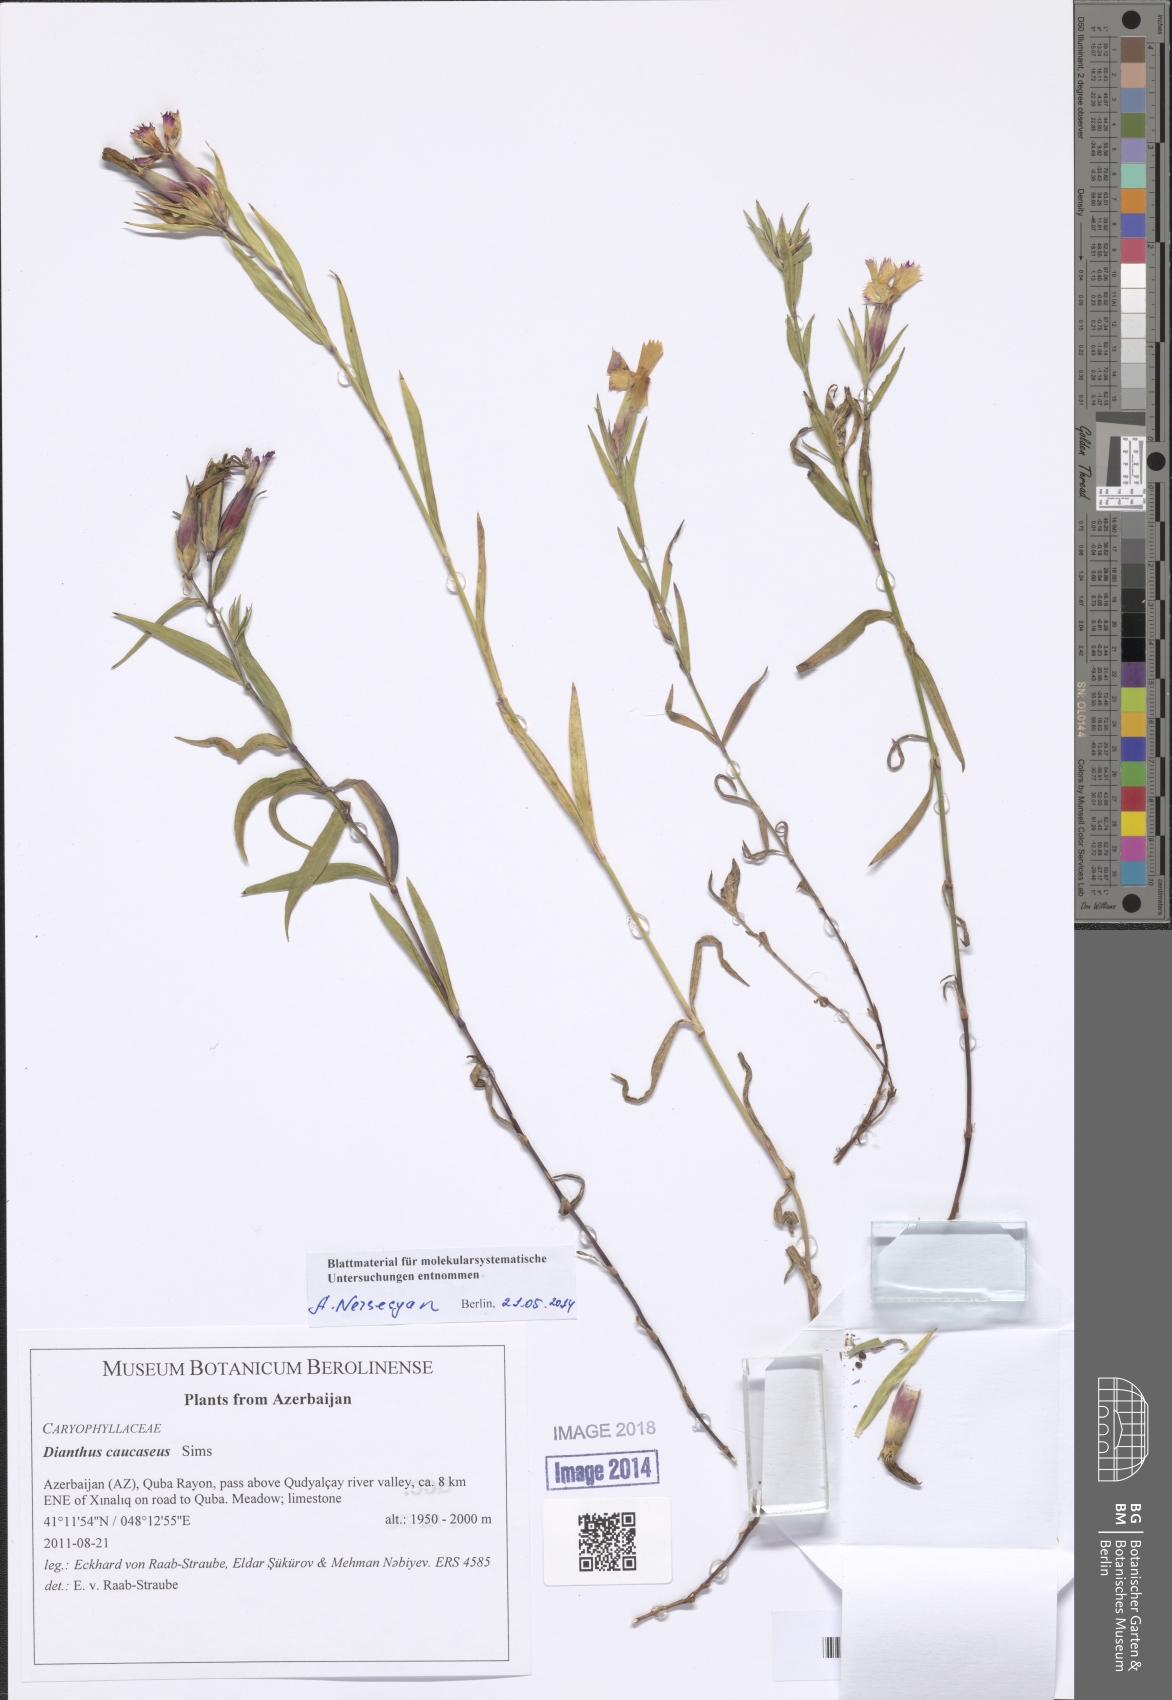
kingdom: Plantae
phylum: Tracheophyta
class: Magnoliopsida
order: Caryophyllales
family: Caryophyllaceae
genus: Dianthus
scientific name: Dianthus caucaseus
